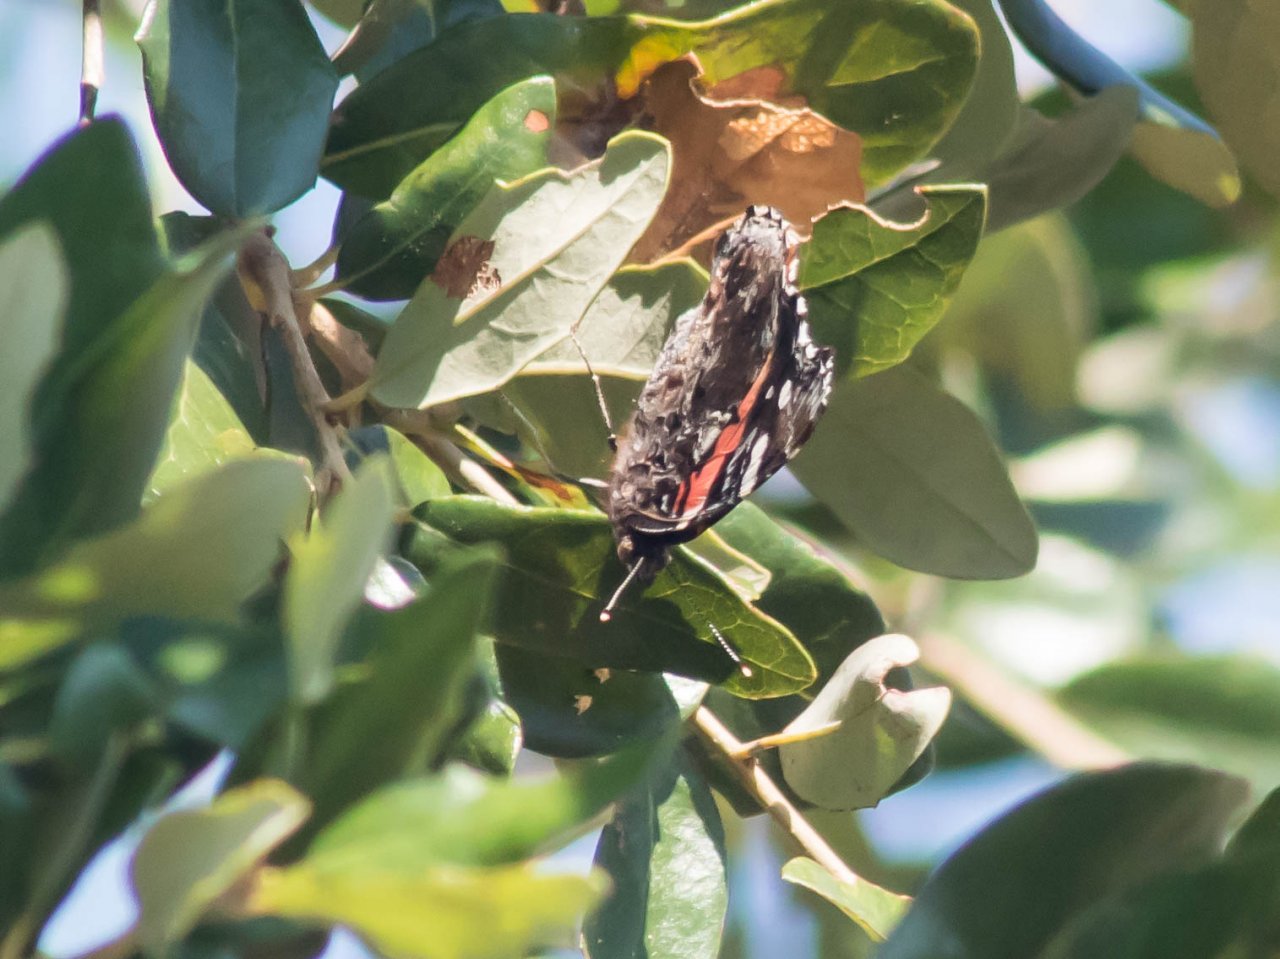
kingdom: Animalia
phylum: Arthropoda
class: Insecta
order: Lepidoptera
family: Nymphalidae
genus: Vanessa
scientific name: Vanessa atalanta
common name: Red Admiral
